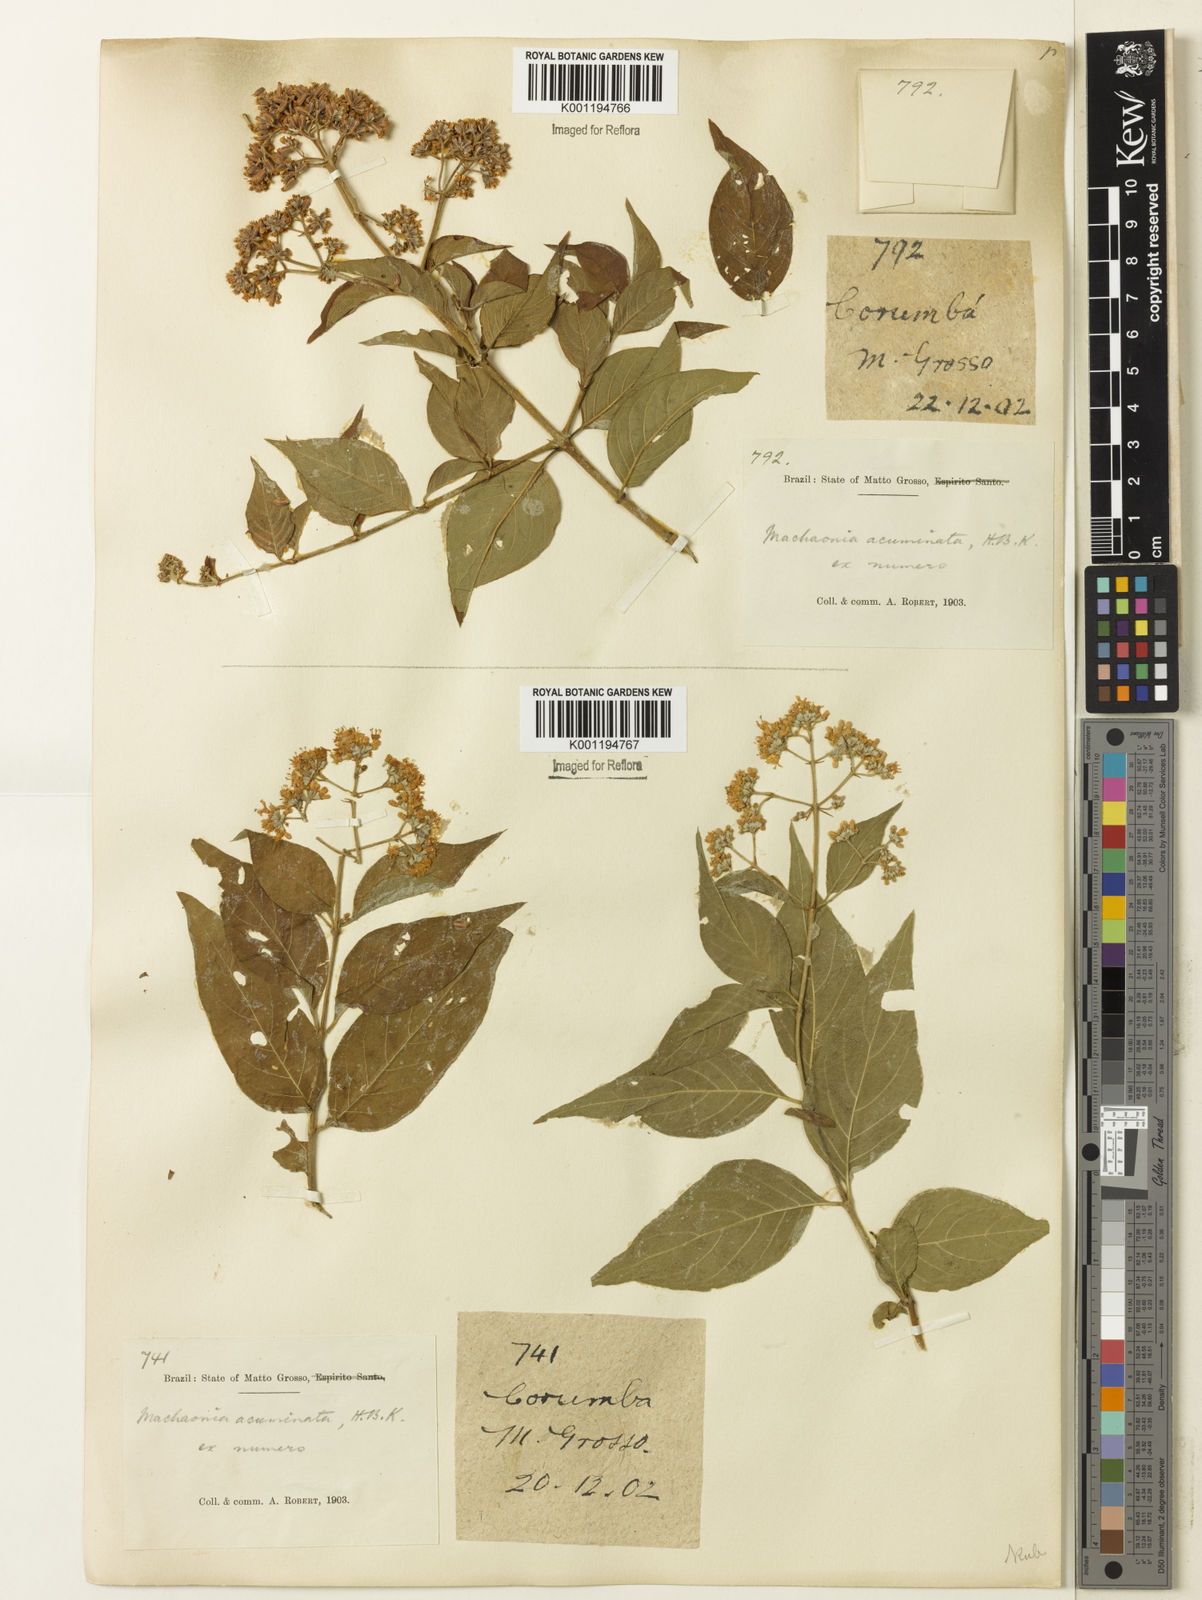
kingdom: Plantae
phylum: Tracheophyta
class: Magnoliopsida
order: Gentianales
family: Rubiaceae
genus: Machaonia
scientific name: Machaonia acuminata
